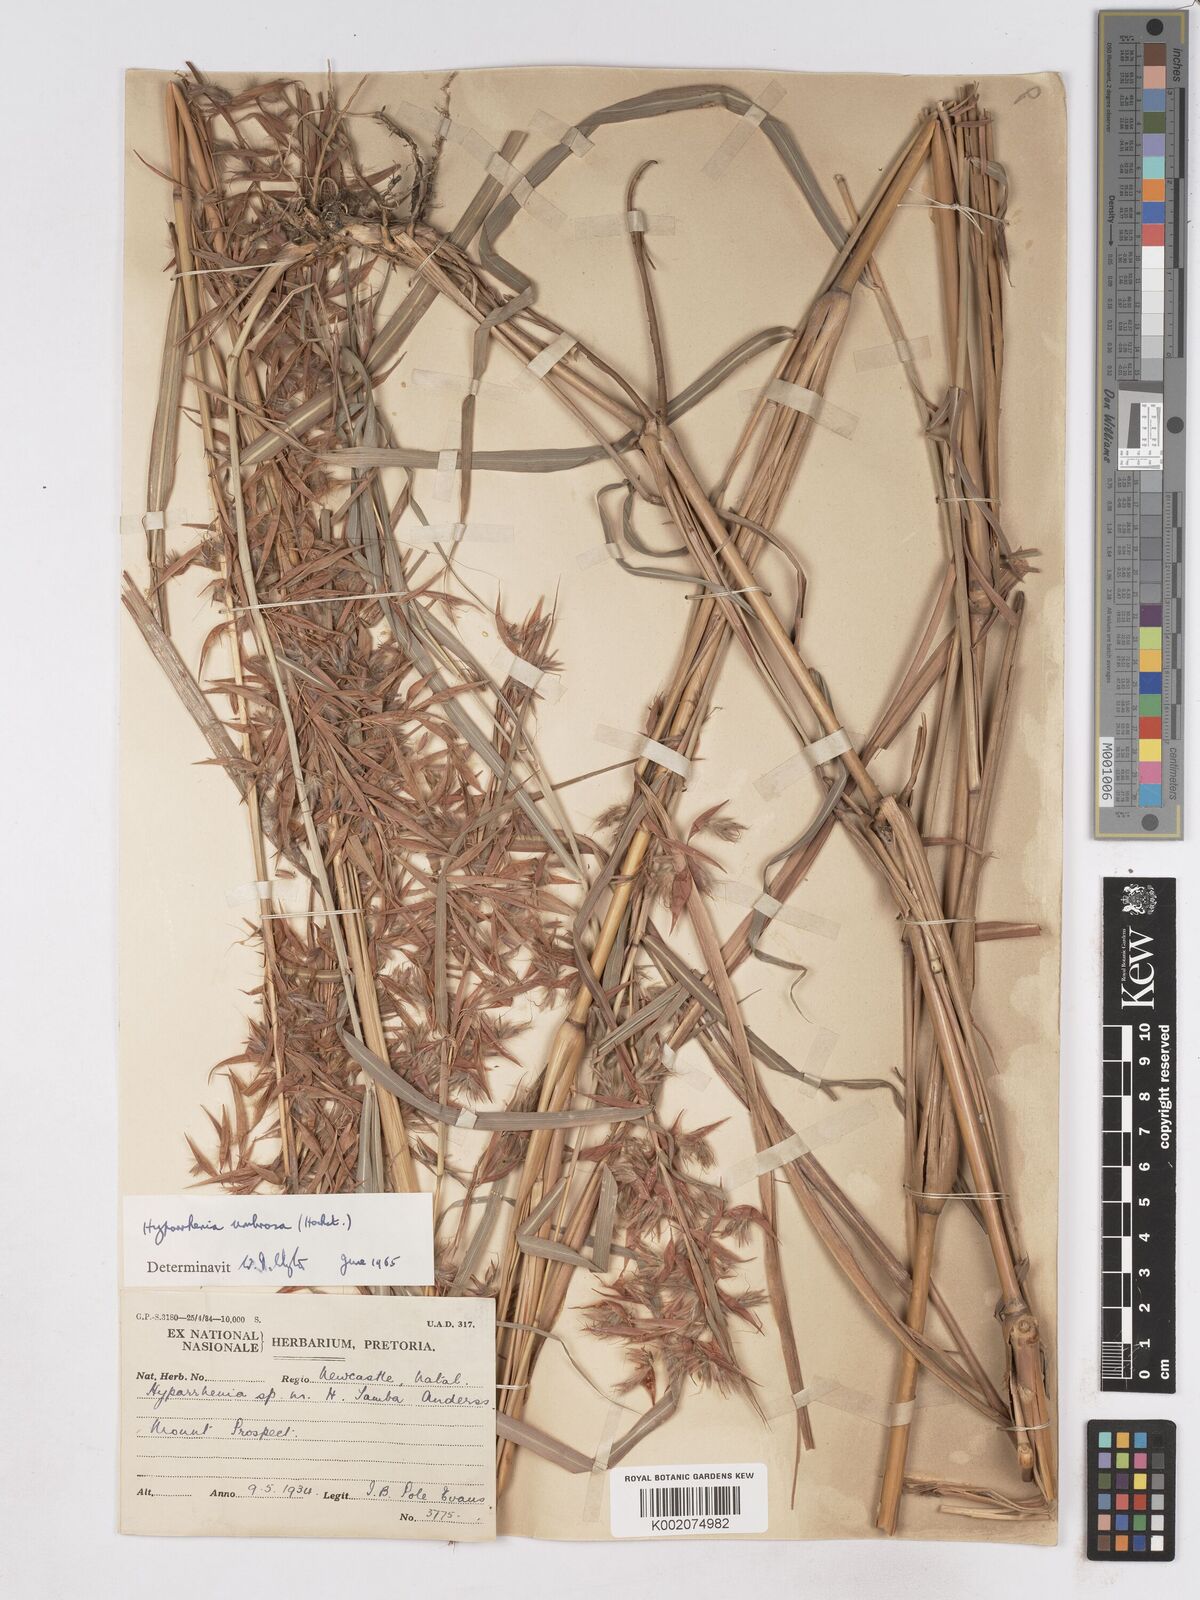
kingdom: Plantae
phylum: Tracheophyta
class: Liliopsida
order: Poales
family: Poaceae
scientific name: Poaceae
